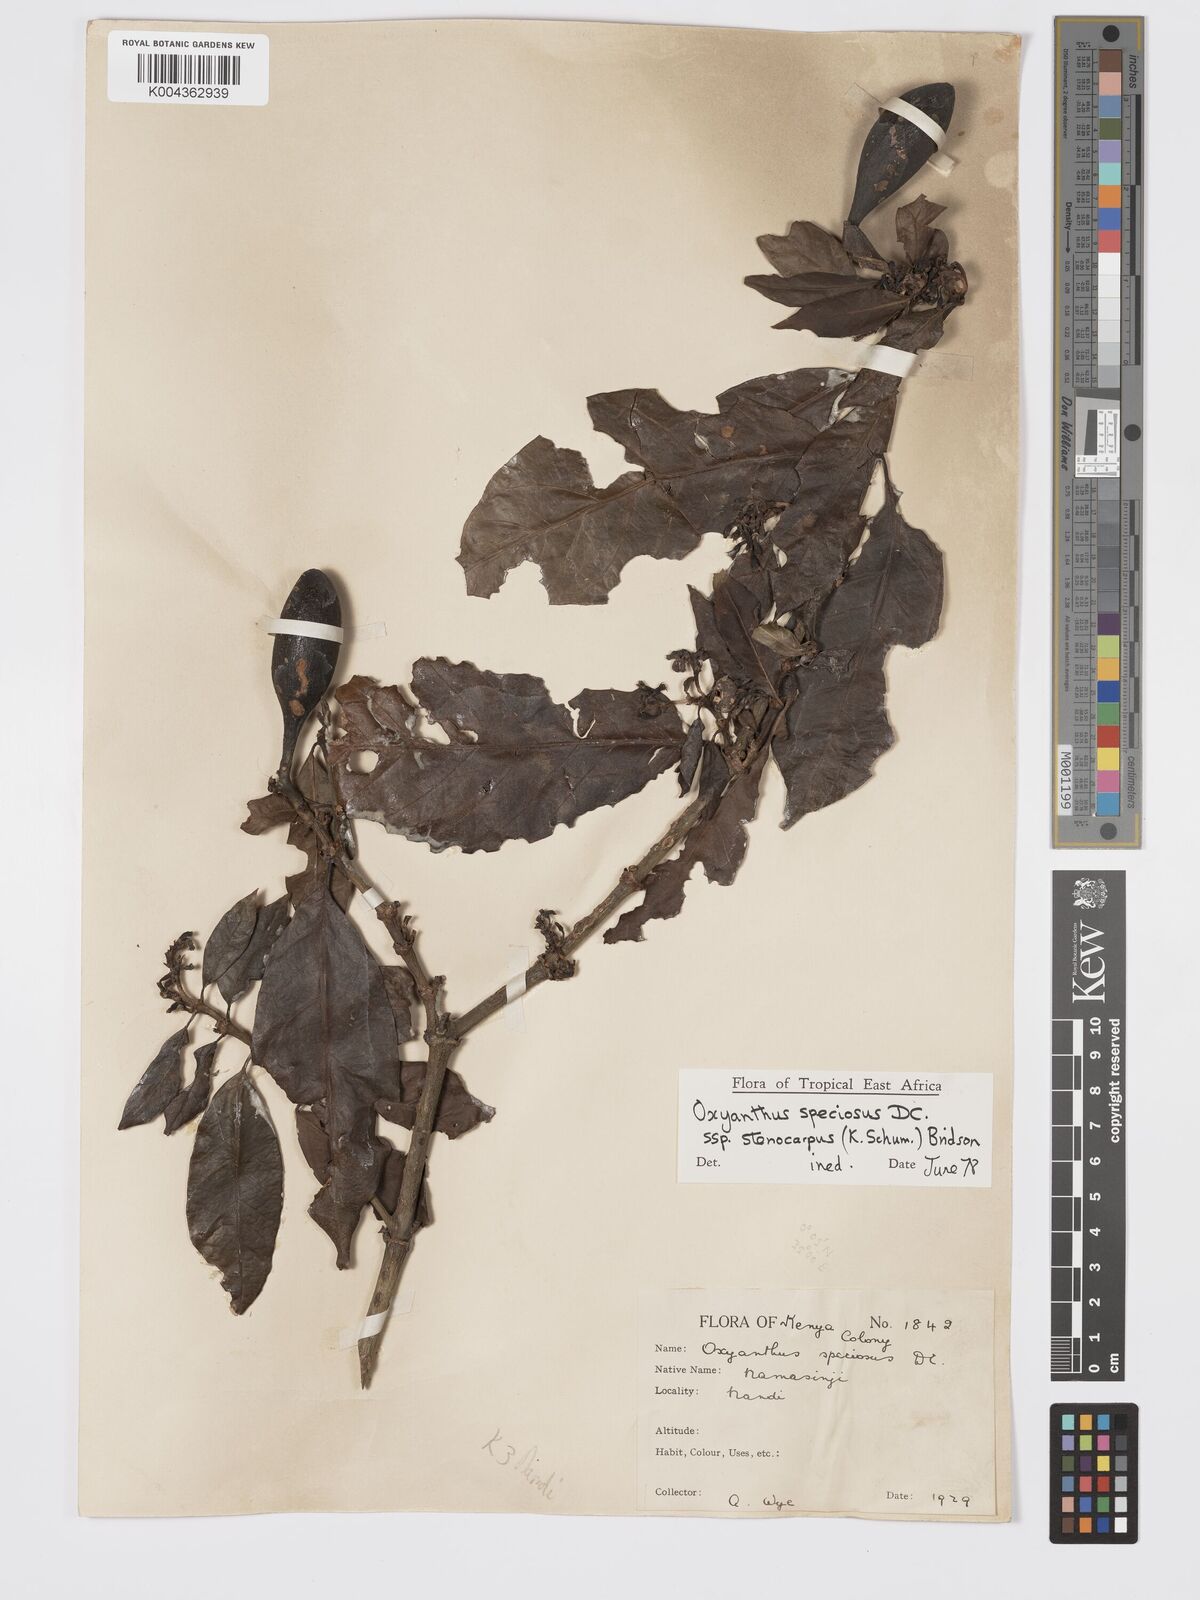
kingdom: Plantae
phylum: Tracheophyta
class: Magnoliopsida
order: Gentianales
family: Rubiaceae
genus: Oxyanthus
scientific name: Oxyanthus speciosus
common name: Whipstick loquat
